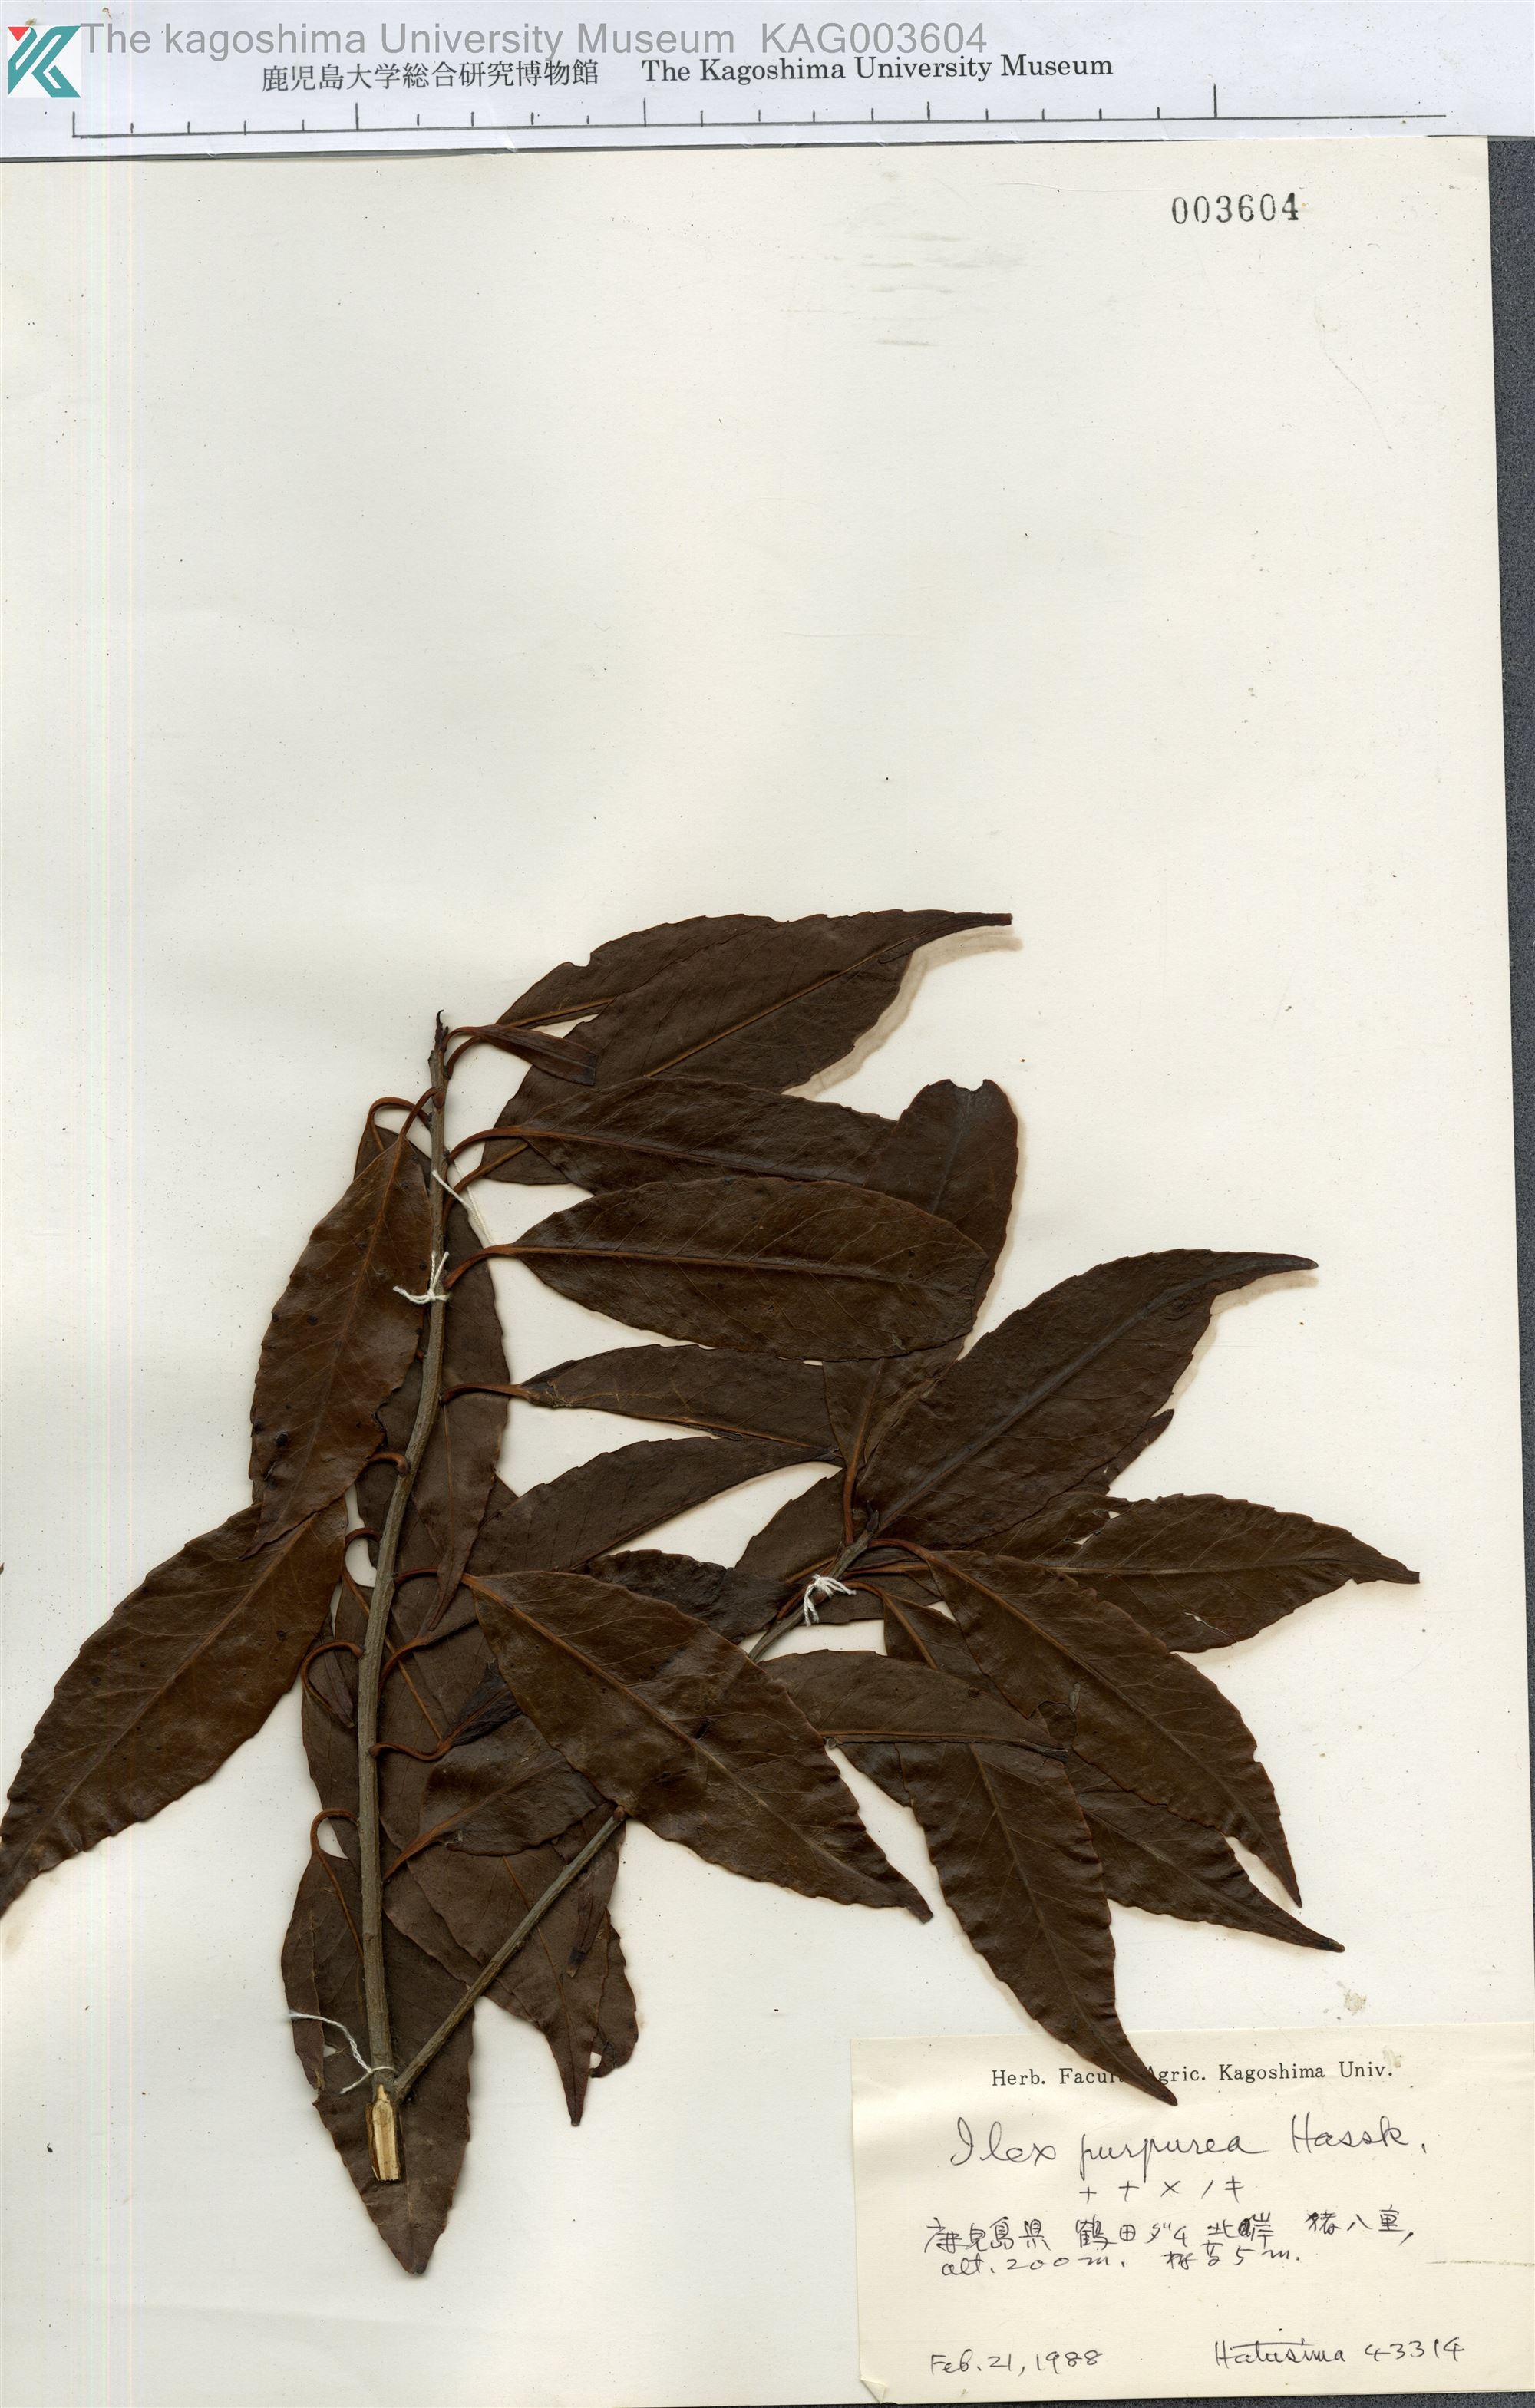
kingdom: Plantae
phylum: Tracheophyta
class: Magnoliopsida
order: Aquifoliales
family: Aquifoliaceae
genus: Ilex
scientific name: Ilex chinensis
